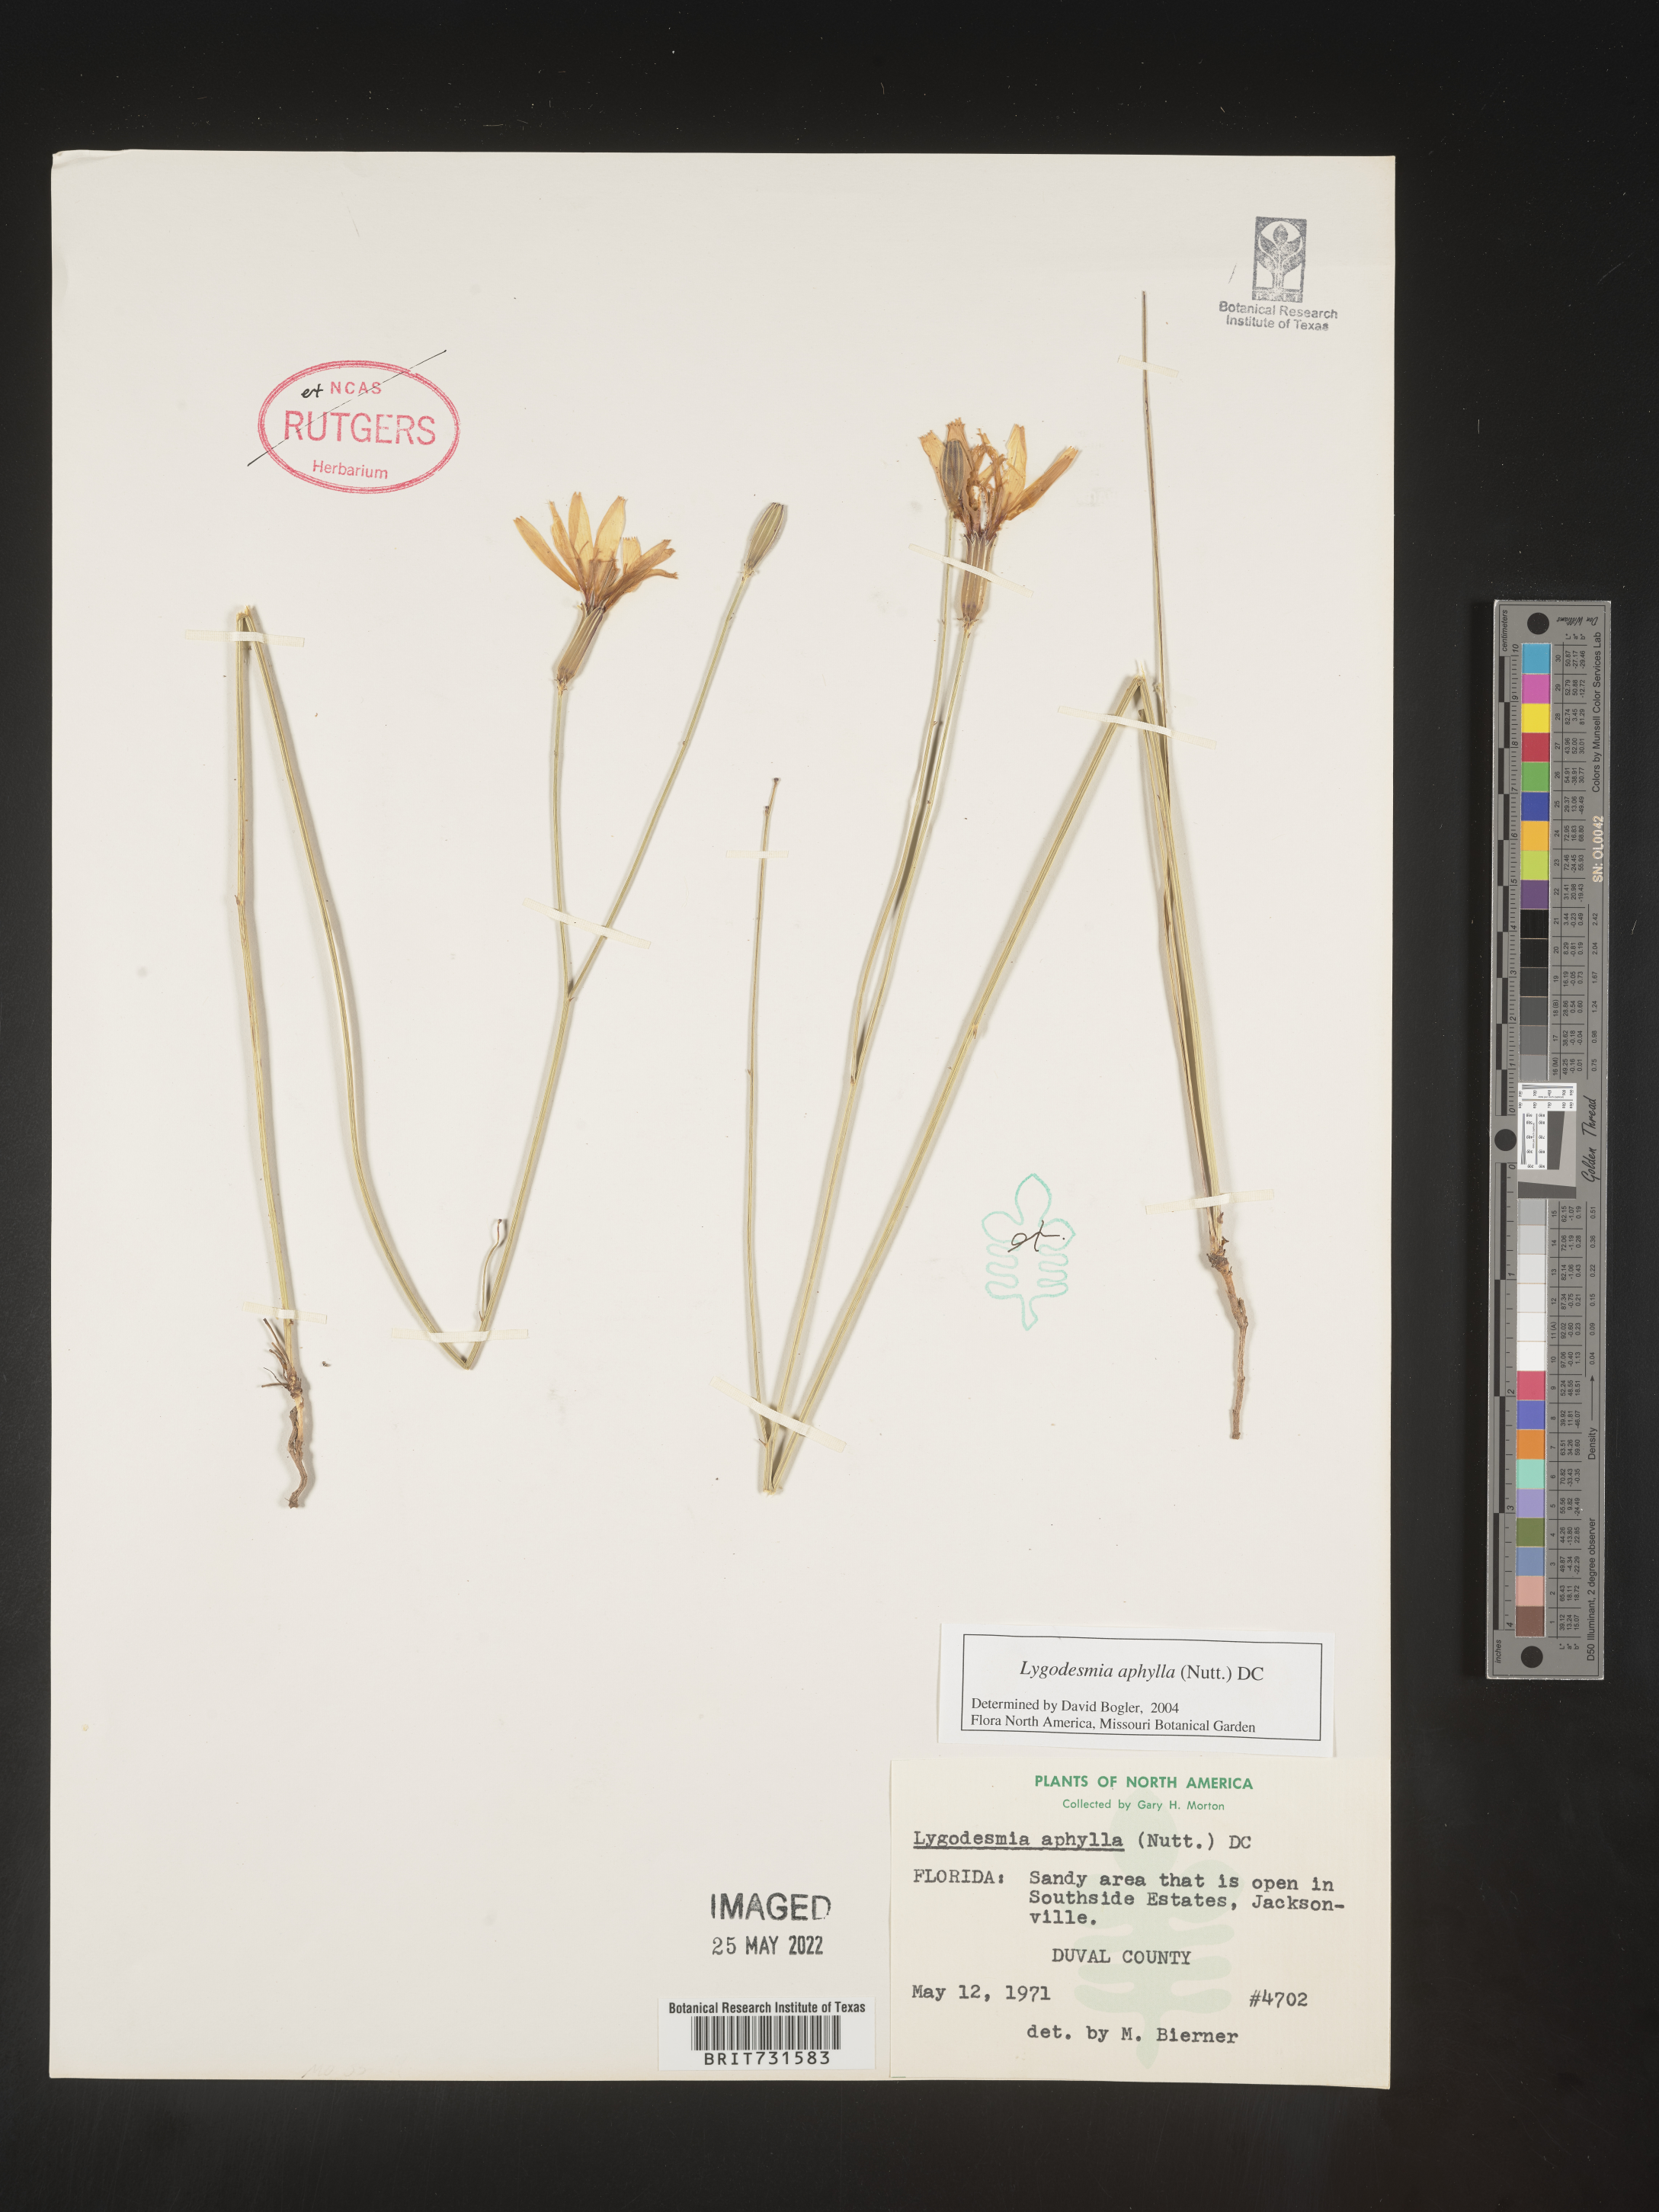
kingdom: Plantae
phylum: Tracheophyta
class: Magnoliopsida
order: Asterales
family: Asteraceae
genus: Lygodesmia
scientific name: Lygodesmia aphylla
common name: Rose-rush
